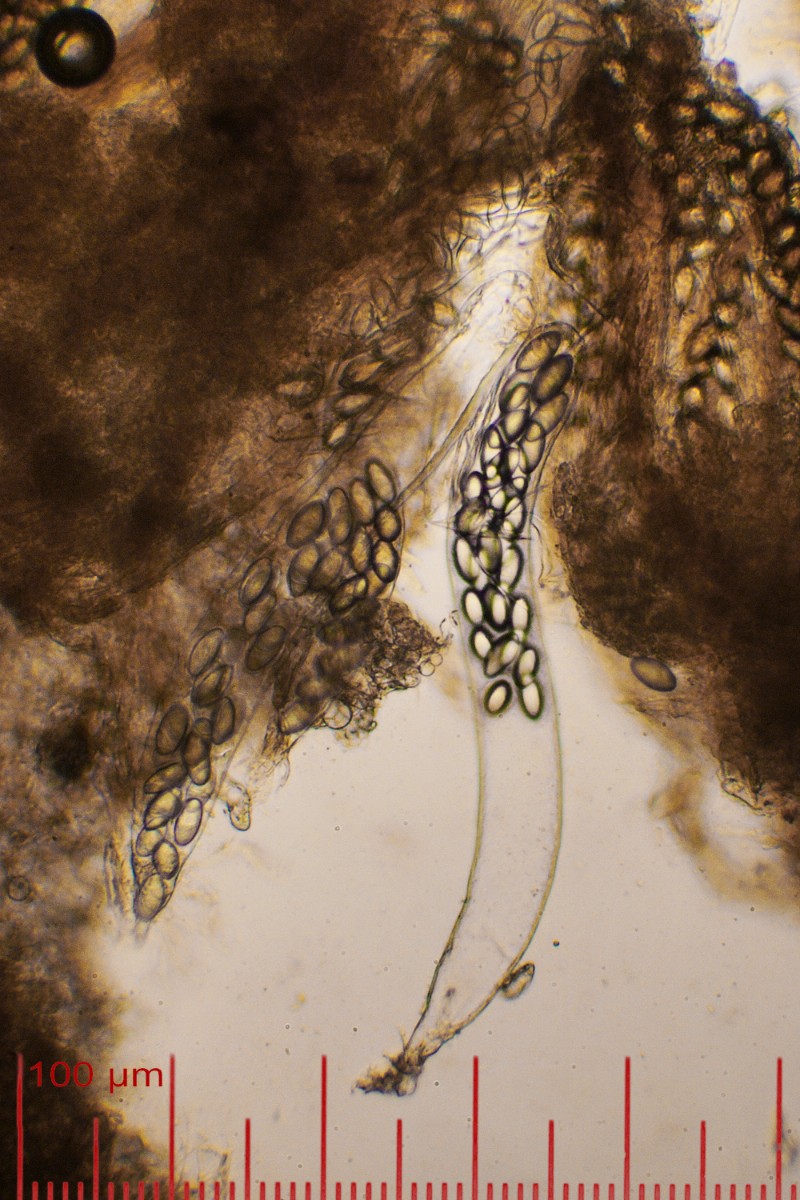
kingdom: Fungi
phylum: Ascomycota
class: Pezizomycetes
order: Pezizales
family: Ascobolaceae
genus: Thecotheus
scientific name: Thecotheus pelletieri
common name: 32-sporet prikbæger
